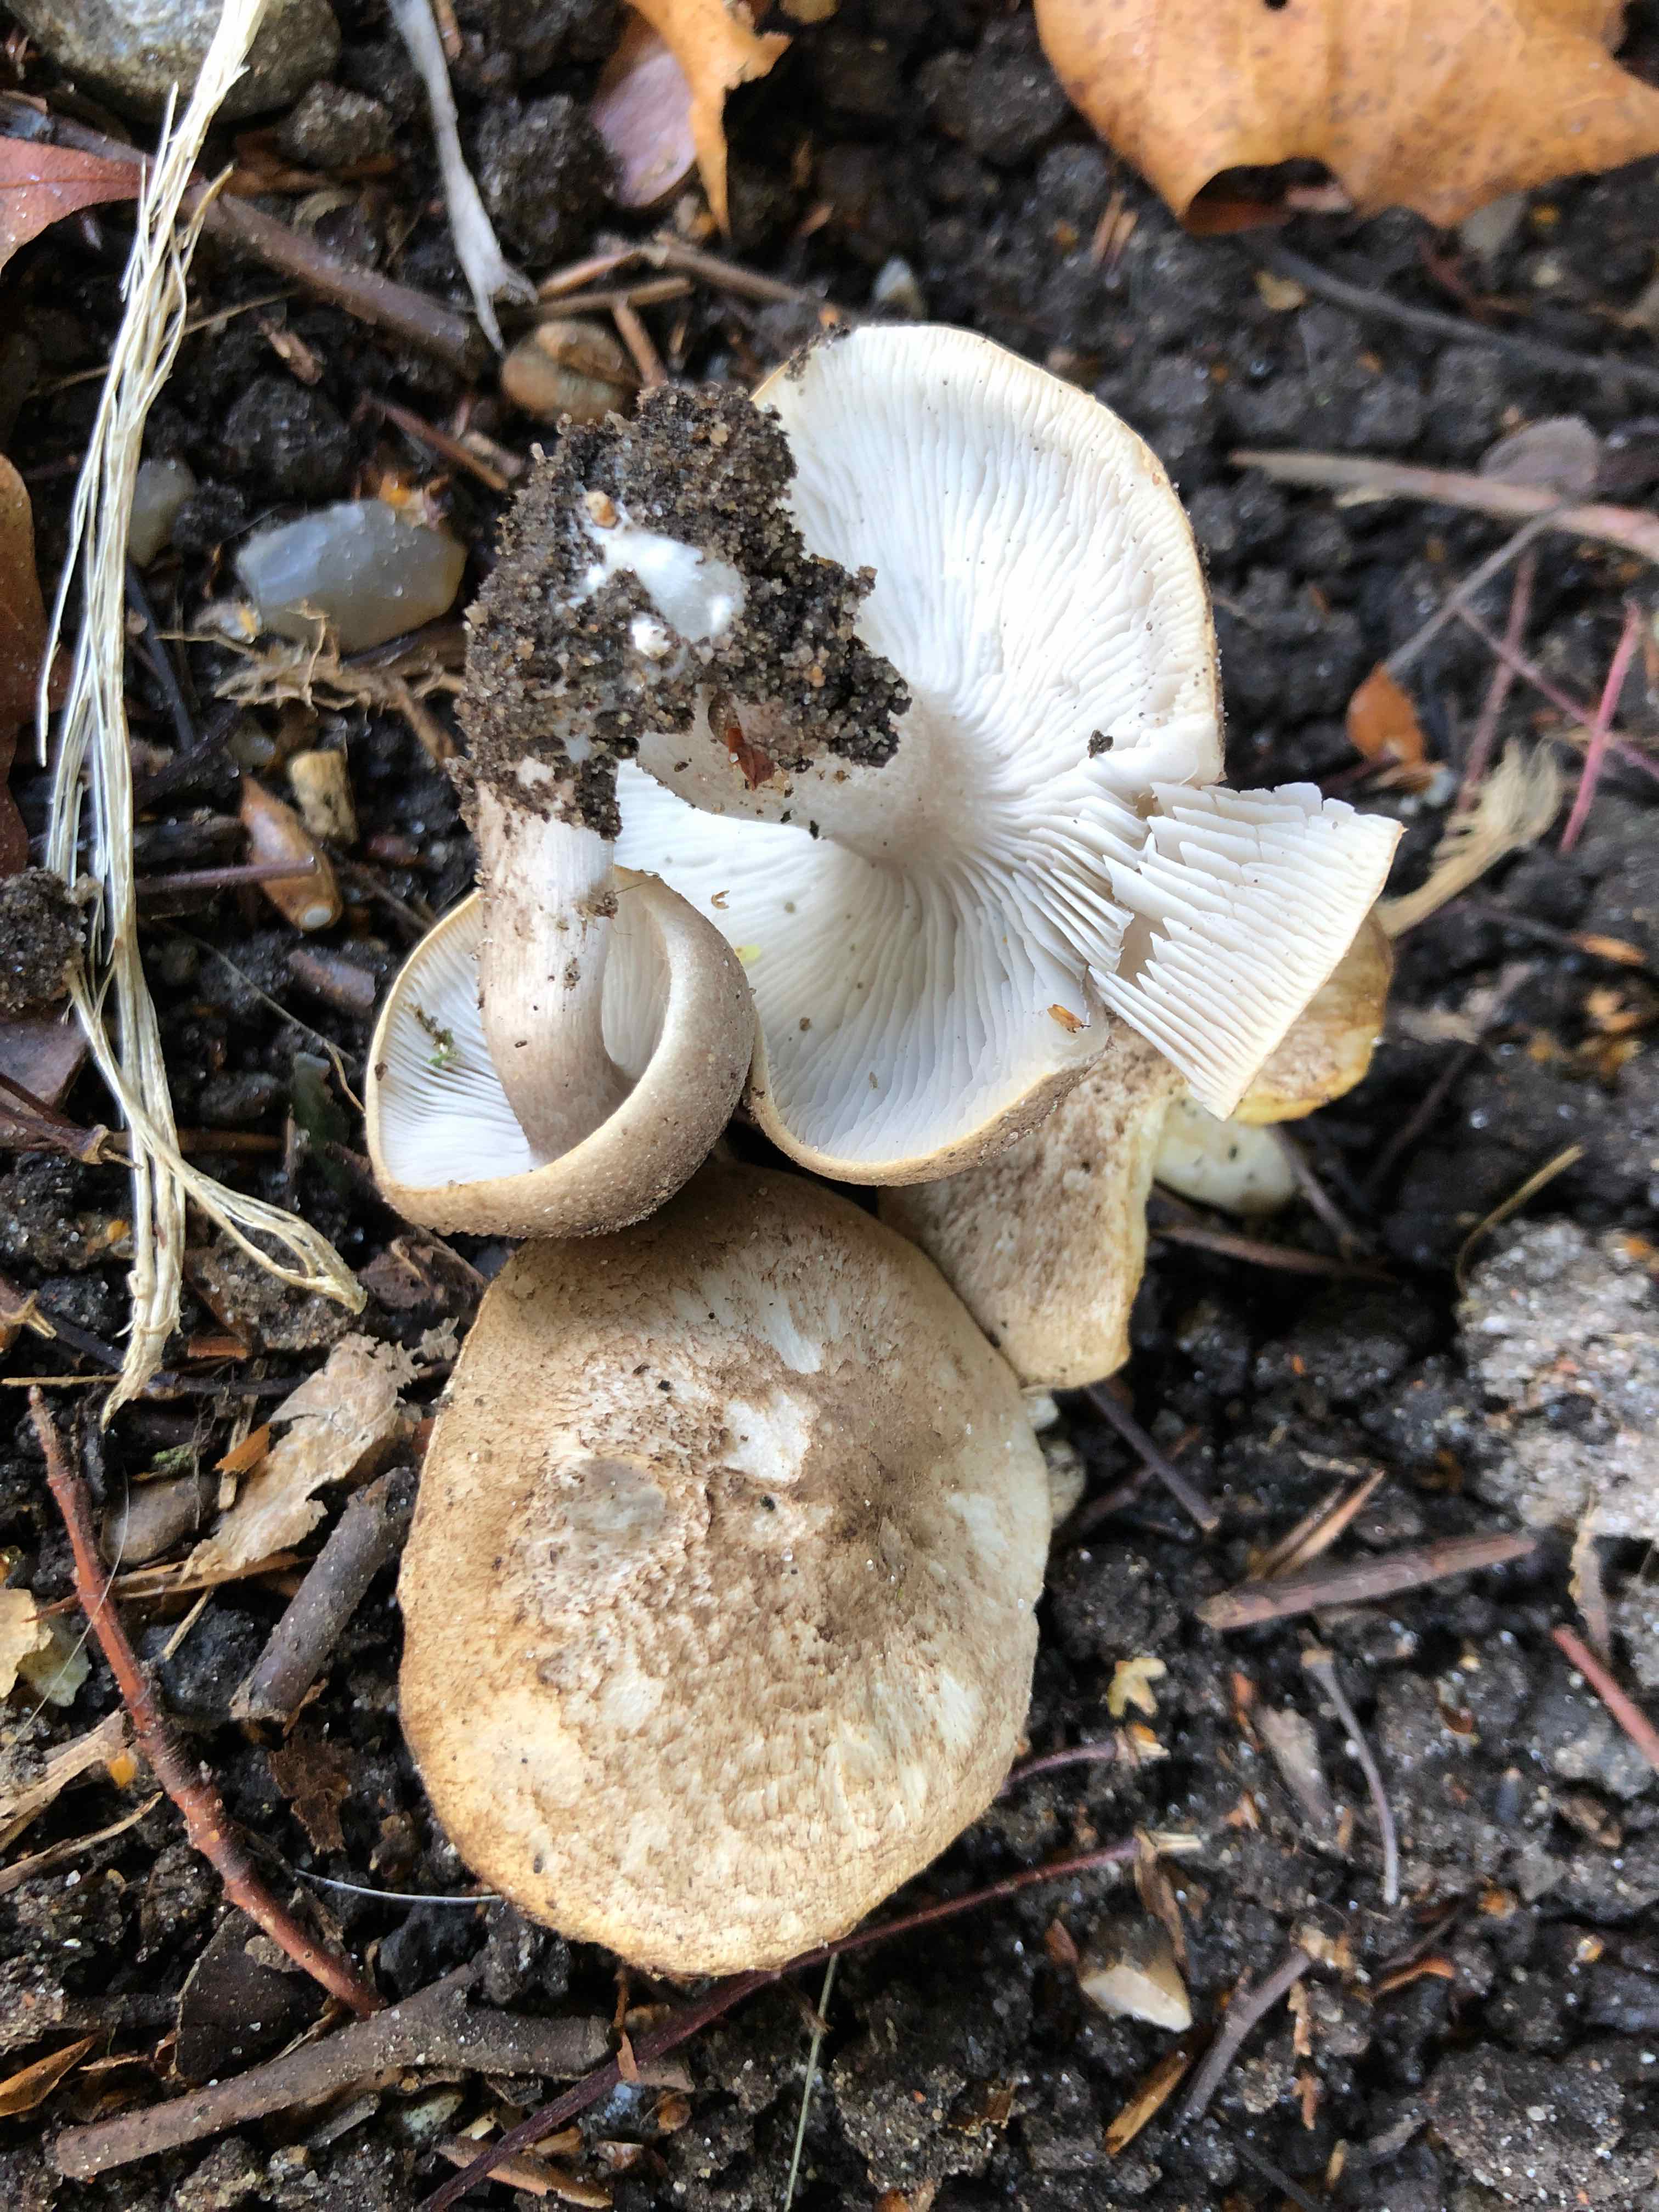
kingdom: Fungi
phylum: Basidiomycota
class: Agaricomycetes
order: Agaricales
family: Tricholomataceae
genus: Tricholoma
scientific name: Tricholoma scalpturatum
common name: gulplettet ridderhat
